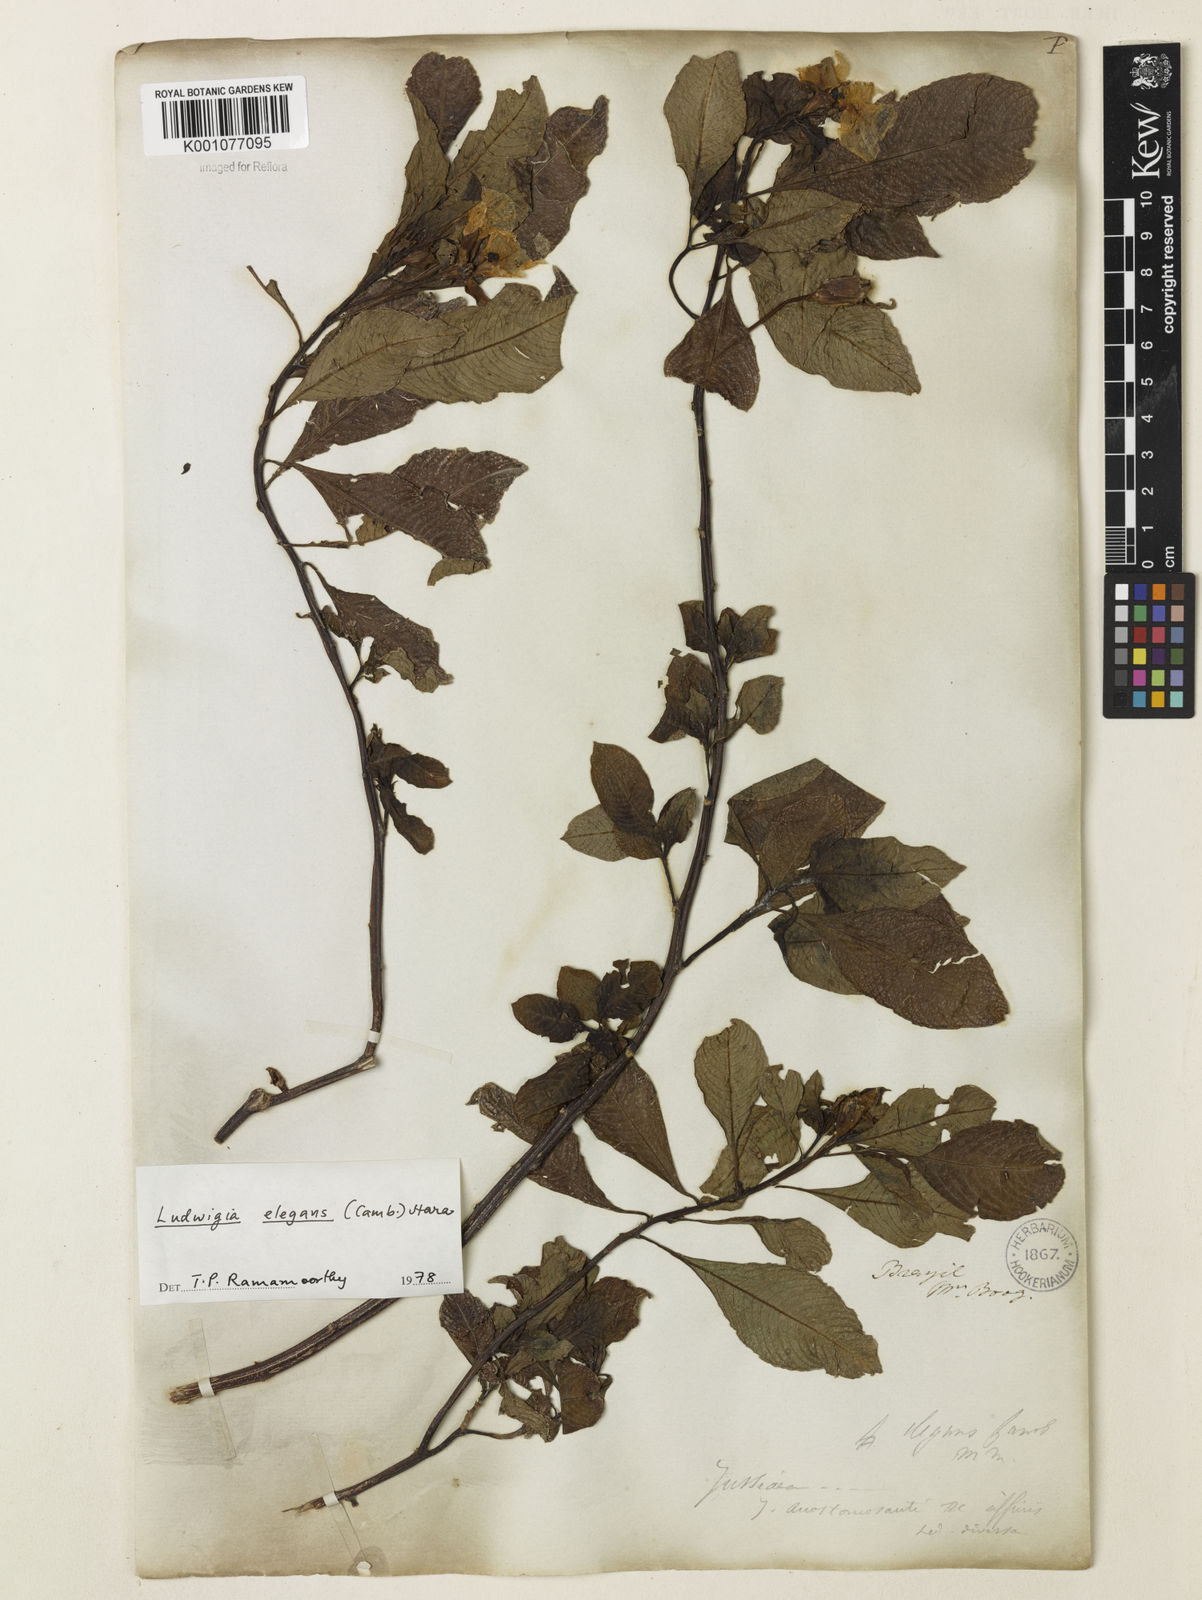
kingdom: Plantae
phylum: Tracheophyta
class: Magnoliopsida
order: Myrtales
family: Onagraceae
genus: Ludwigia
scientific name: Ludwigia elegans
